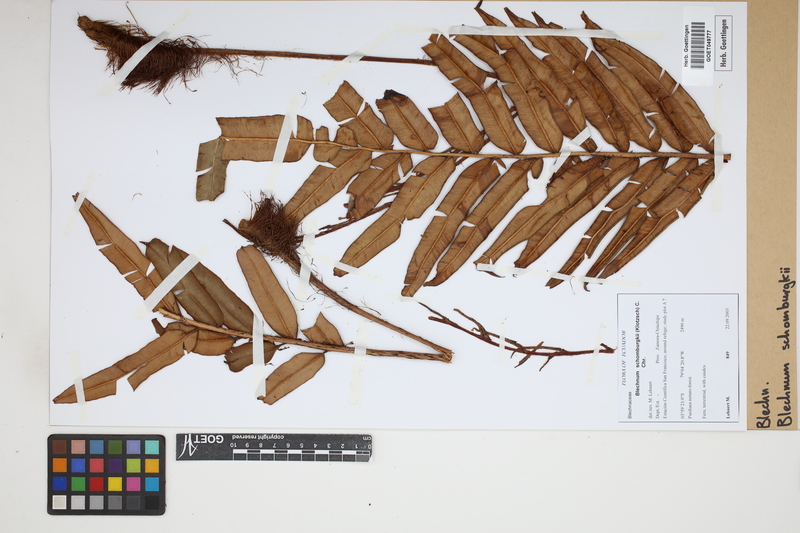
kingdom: Plantae
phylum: Tracheophyta
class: Polypodiopsida
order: Polypodiales
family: Blechnaceae
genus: Lomariocycas
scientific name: Lomariocycas schomburgkii
